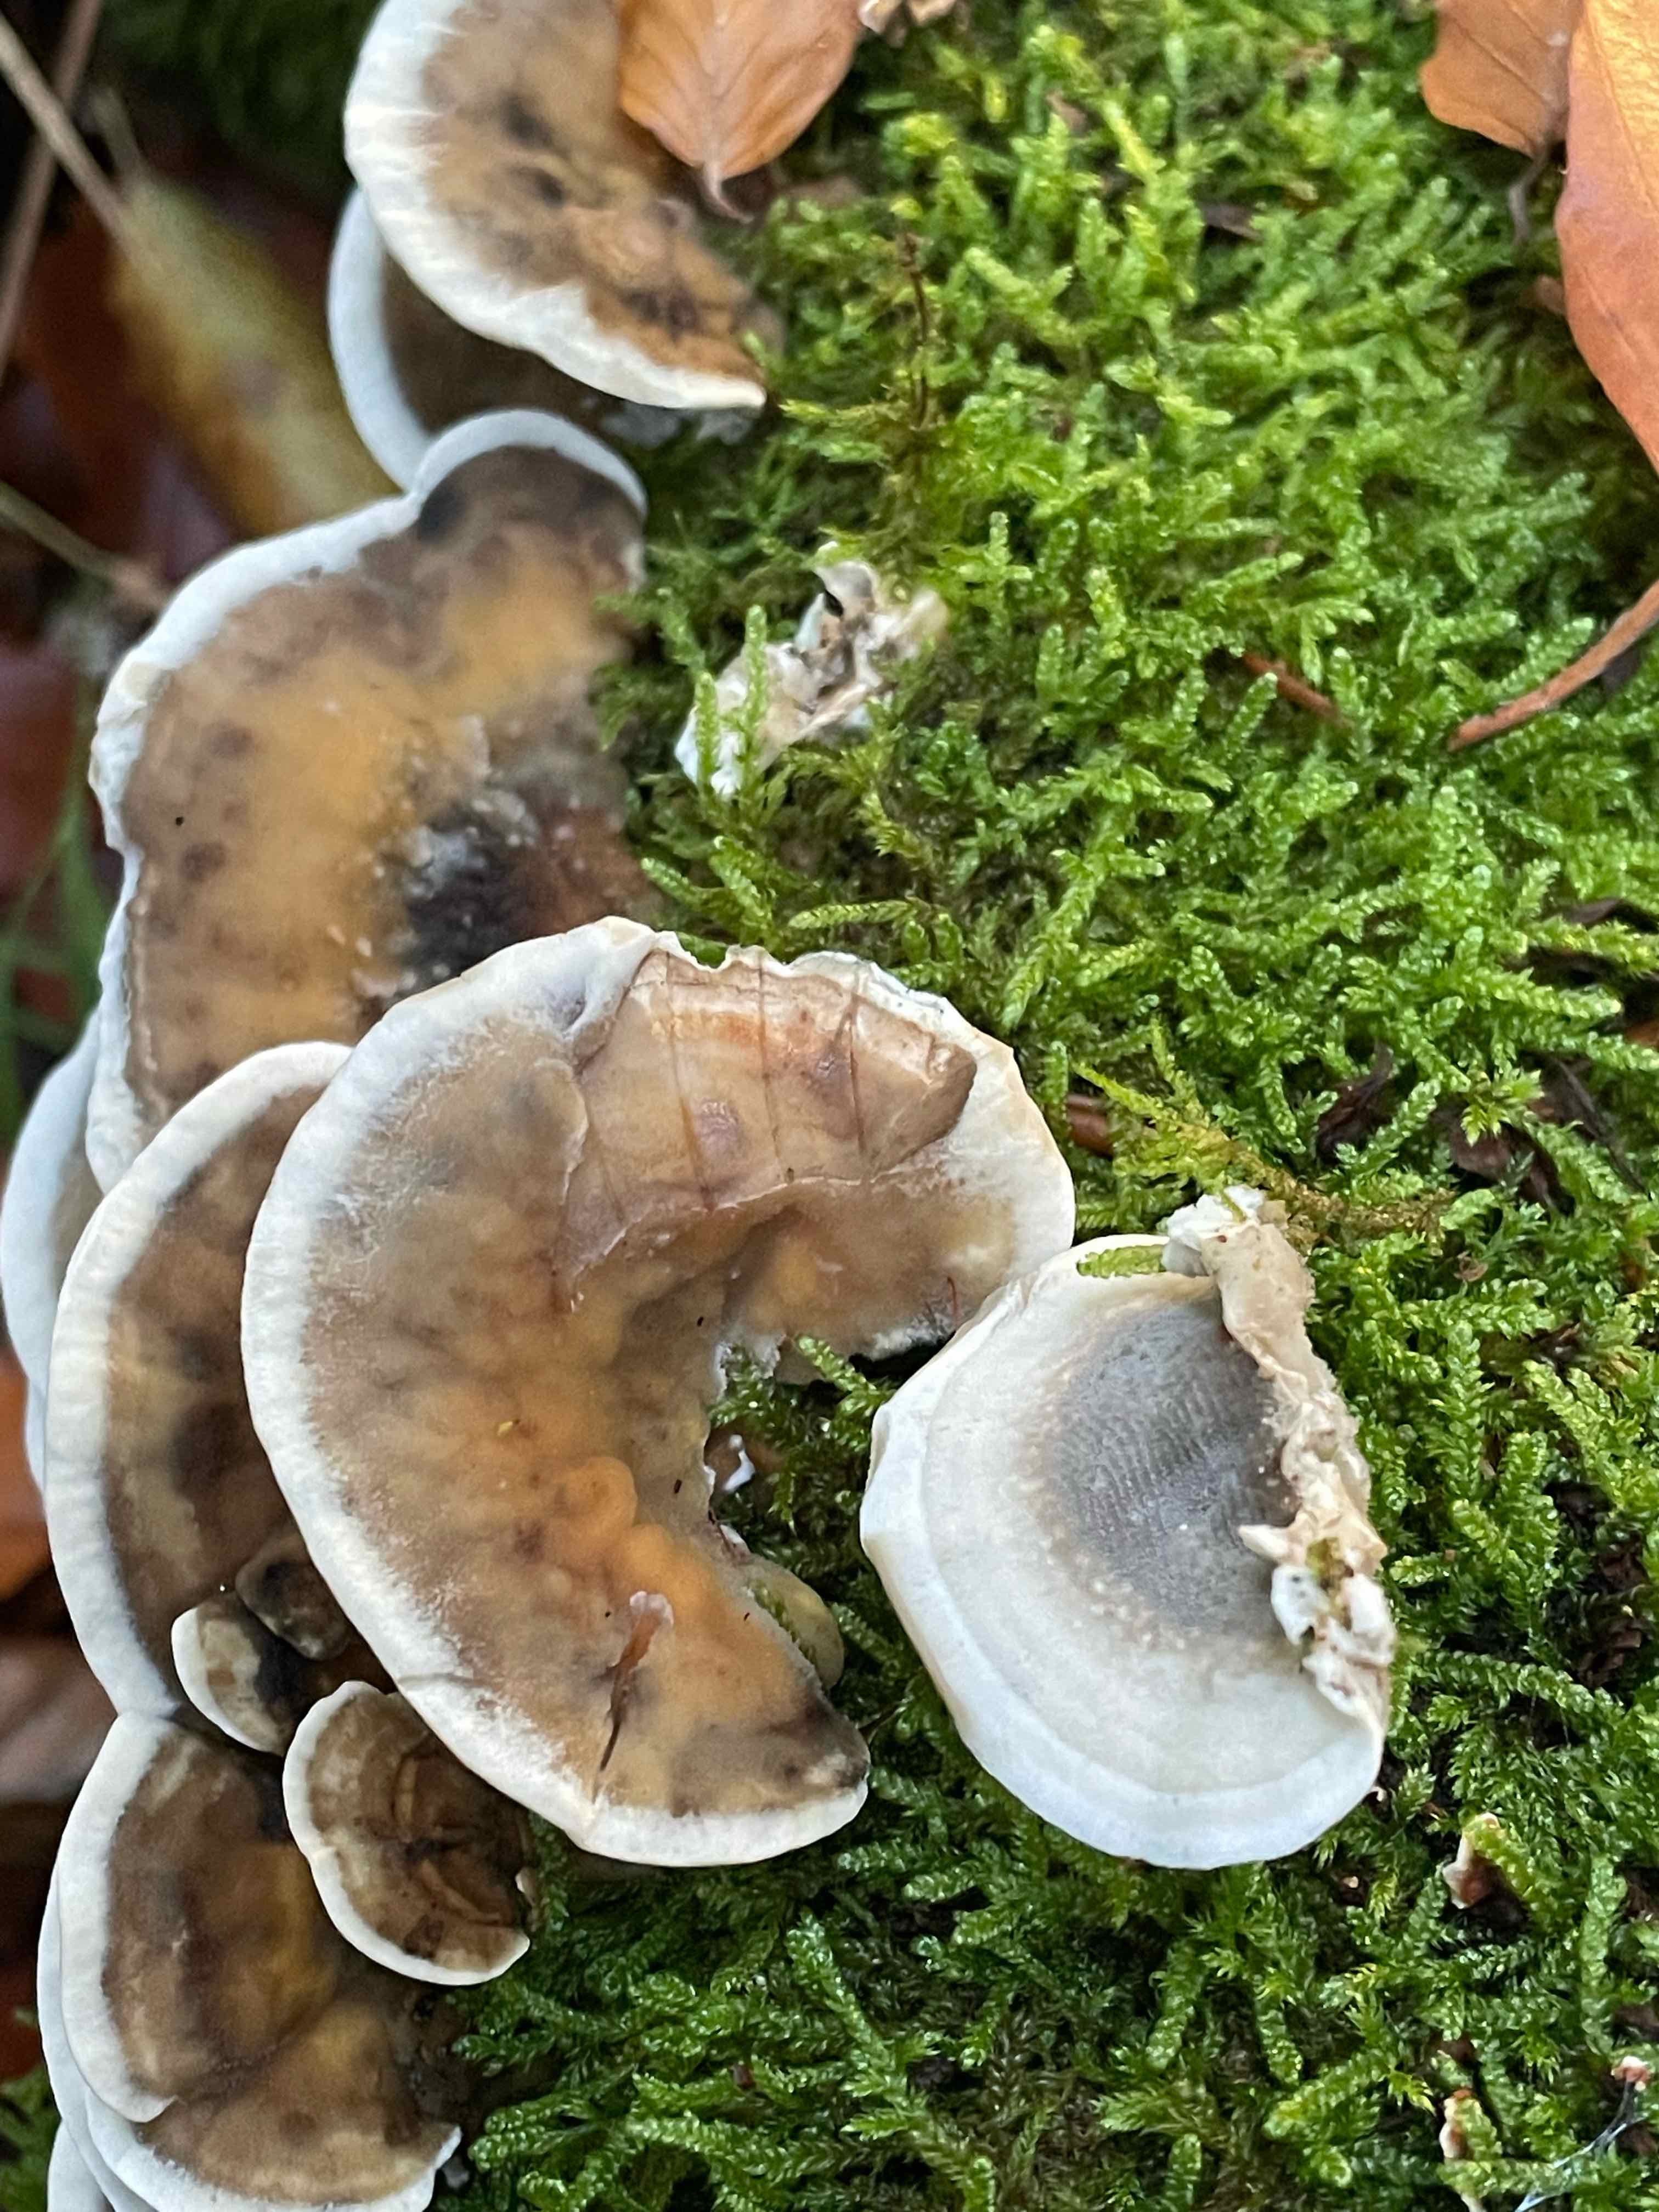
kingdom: Fungi
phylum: Basidiomycota
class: Agaricomycetes
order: Polyporales
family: Phanerochaetaceae
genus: Bjerkandera
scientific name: Bjerkandera adusta
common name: sveden sodporesvamp
